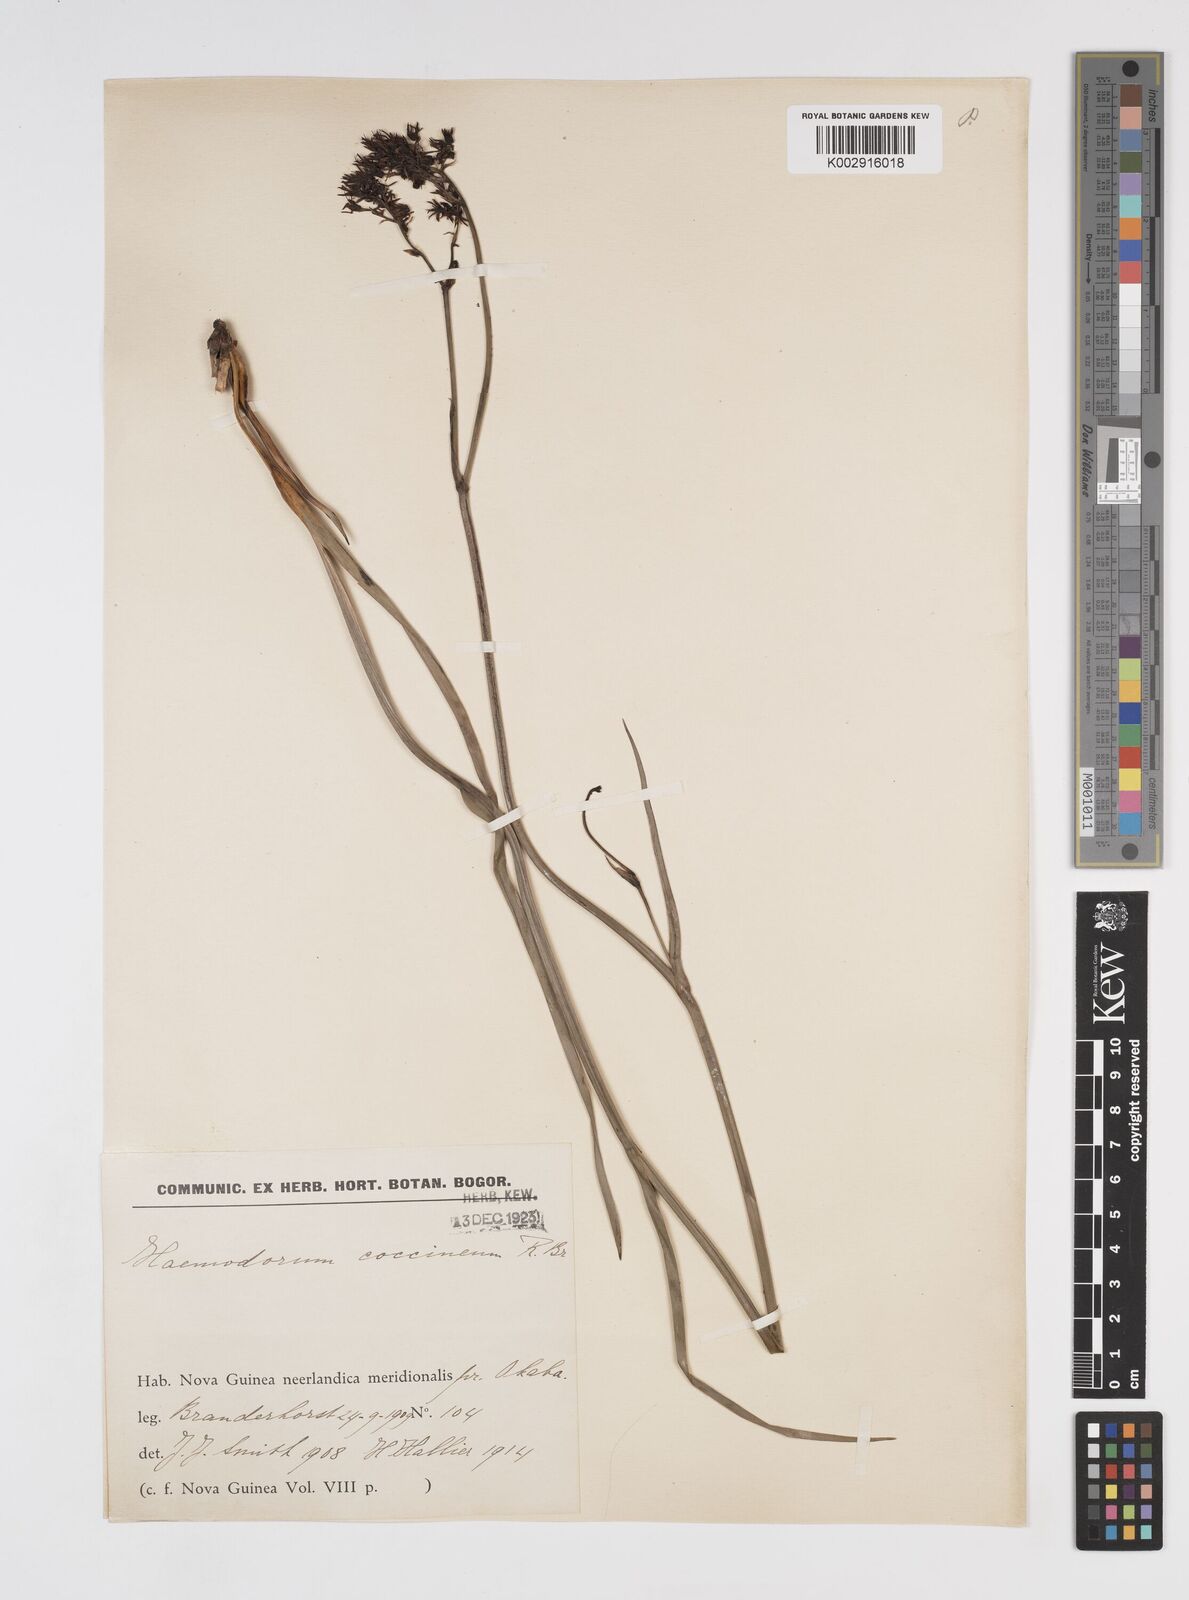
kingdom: Plantae
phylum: Tracheophyta
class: Liliopsida
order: Commelinales
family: Haemodoraceae
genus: Haemodorum
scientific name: Haemodorum corymbosum
